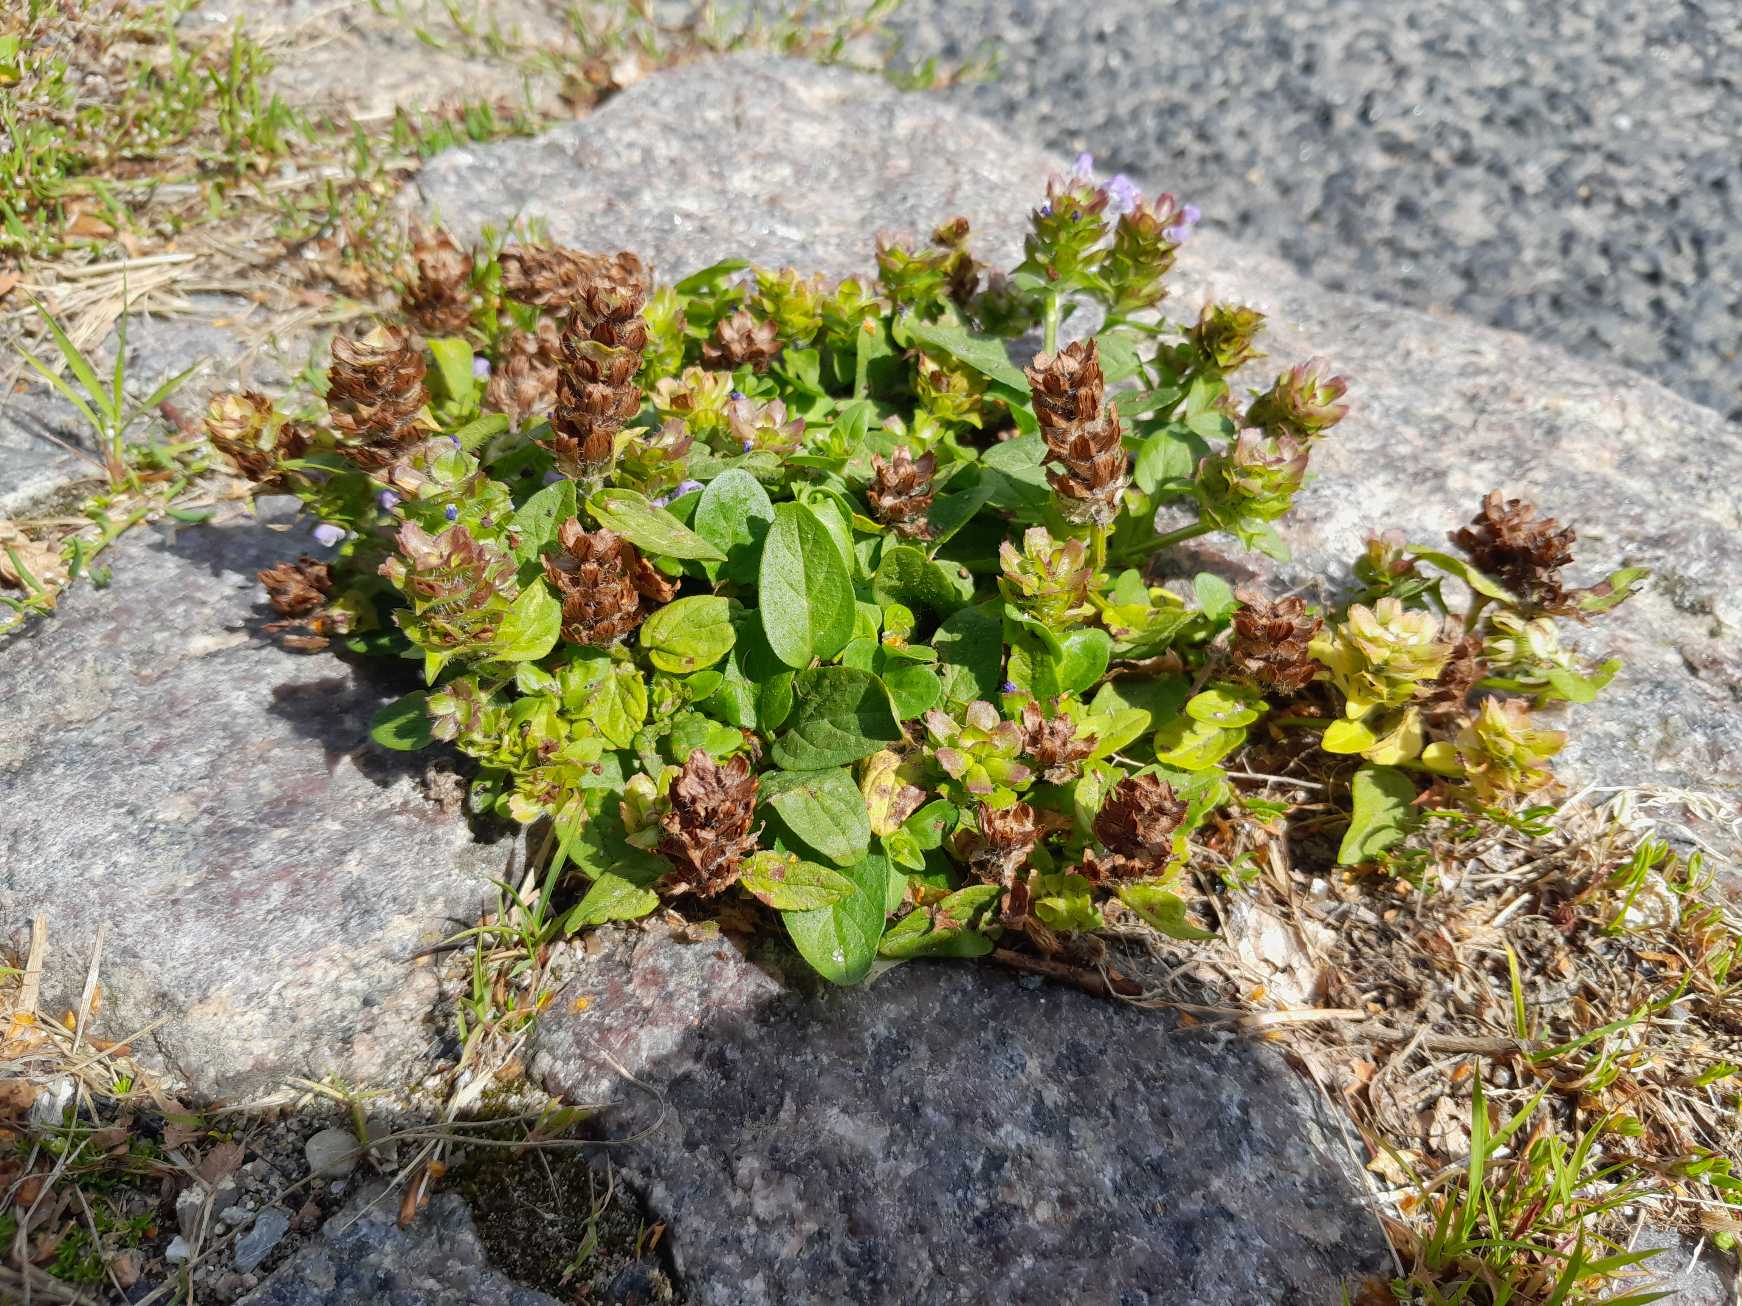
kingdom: Plantae
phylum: Tracheophyta
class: Magnoliopsida
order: Lamiales
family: Lamiaceae
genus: Prunella
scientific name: Prunella vulgaris
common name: Almindelig brunelle
